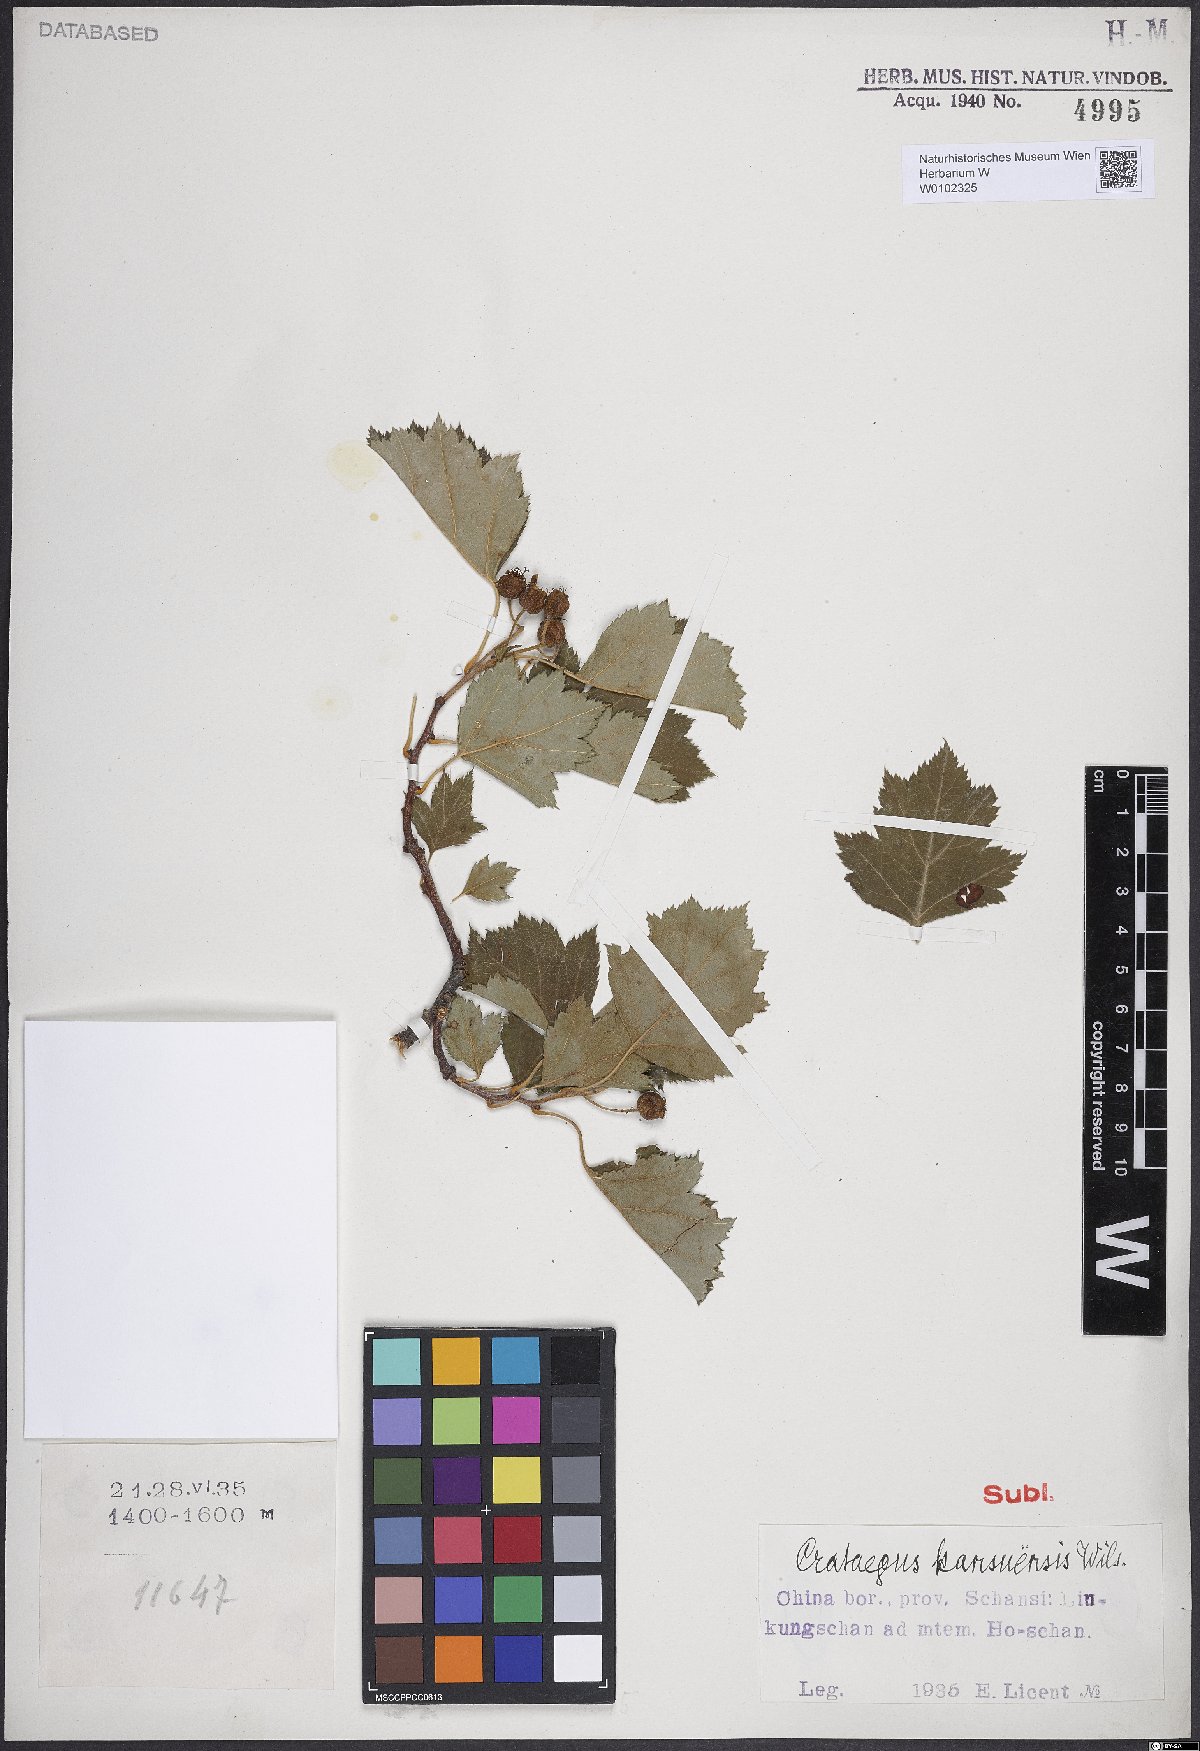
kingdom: Plantae
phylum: Tracheophyta
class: Magnoliopsida
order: Rosales
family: Rosaceae
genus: Crataegus
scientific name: Crataegus kansuensis
